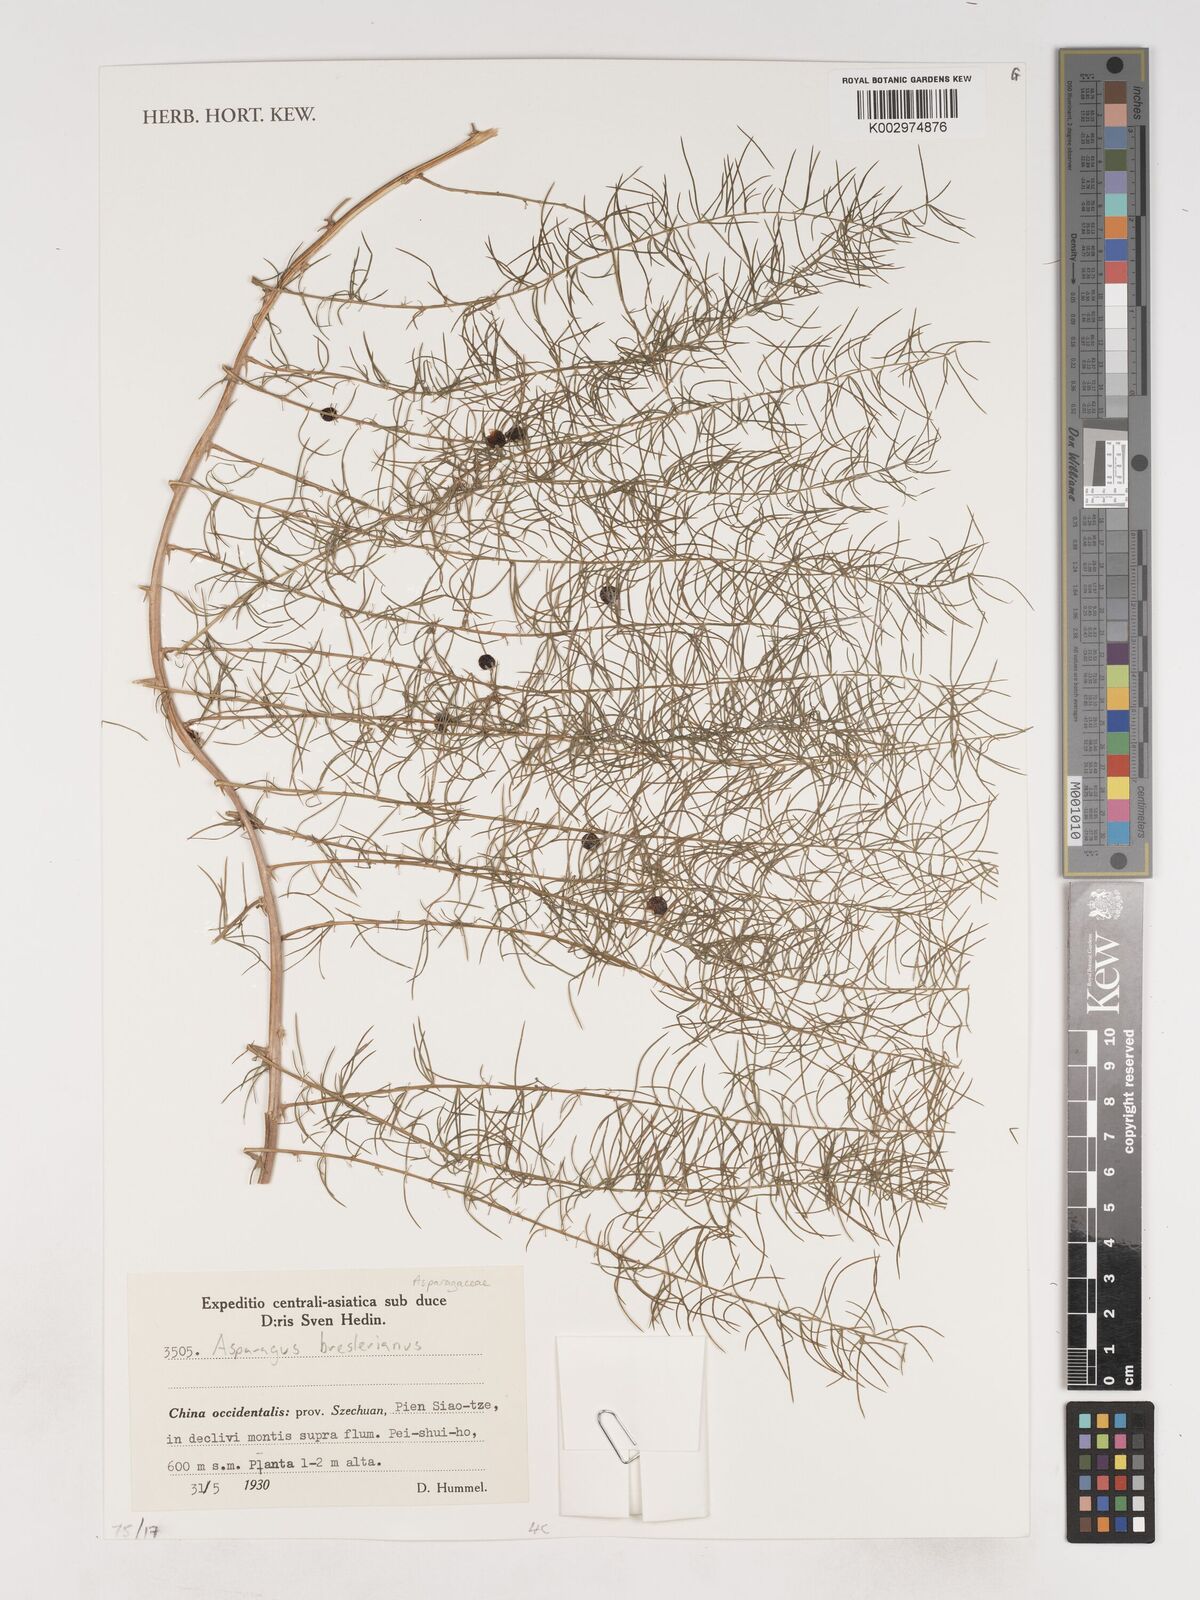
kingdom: Plantae
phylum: Tracheophyta
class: Liliopsida
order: Asparagales
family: Asparagaceae
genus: Asparagus
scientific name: Asparagus
